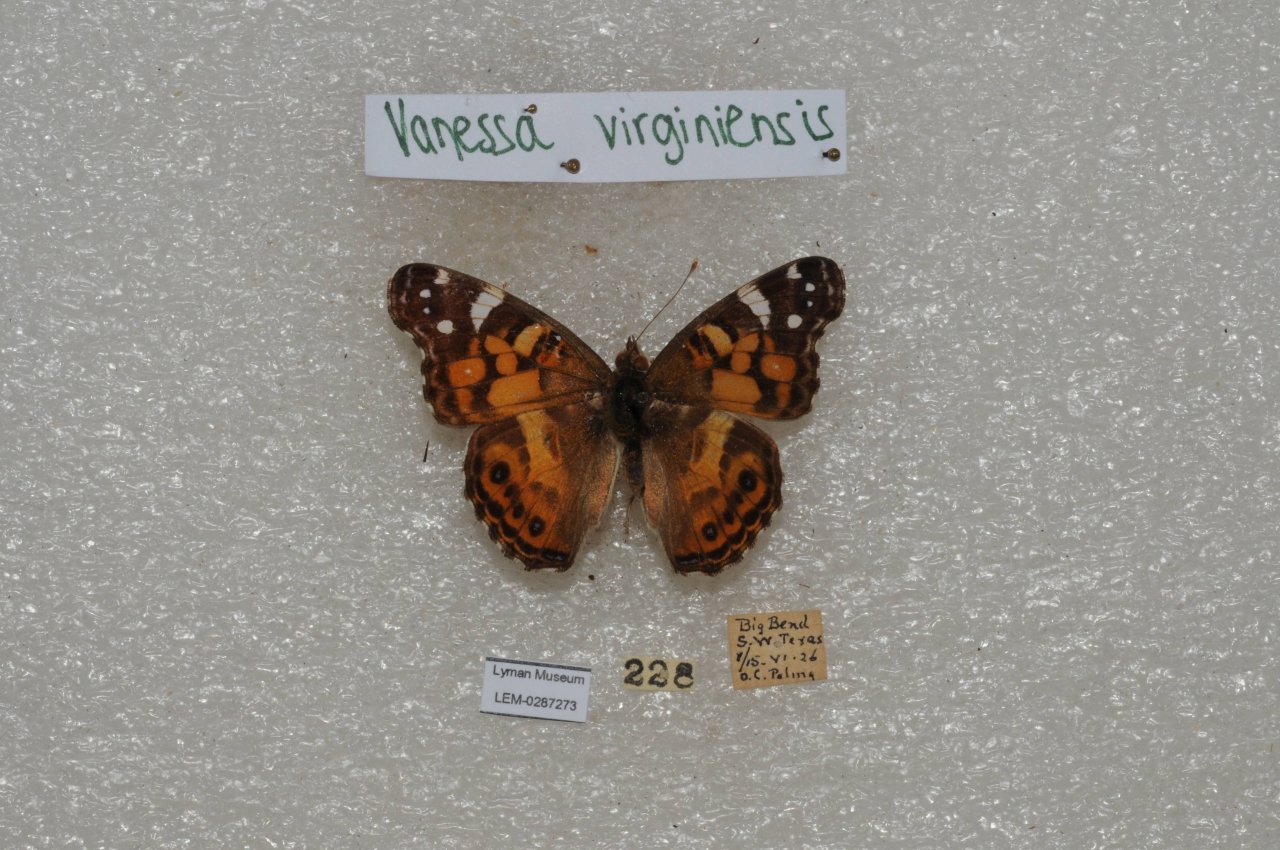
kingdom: Animalia
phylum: Arthropoda
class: Insecta
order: Lepidoptera
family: Nymphalidae
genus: Vanessa
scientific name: Vanessa virginiensis
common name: American Lady
